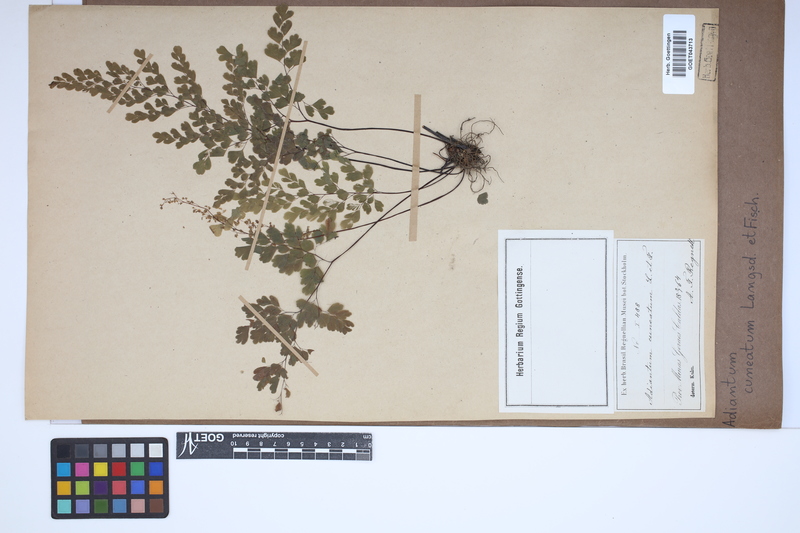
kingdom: Plantae
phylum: Tracheophyta
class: Polypodiopsida
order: Polypodiales
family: Pteridaceae
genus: Adiantum
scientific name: Adiantum raddianum
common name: Delta maidenhair fern
